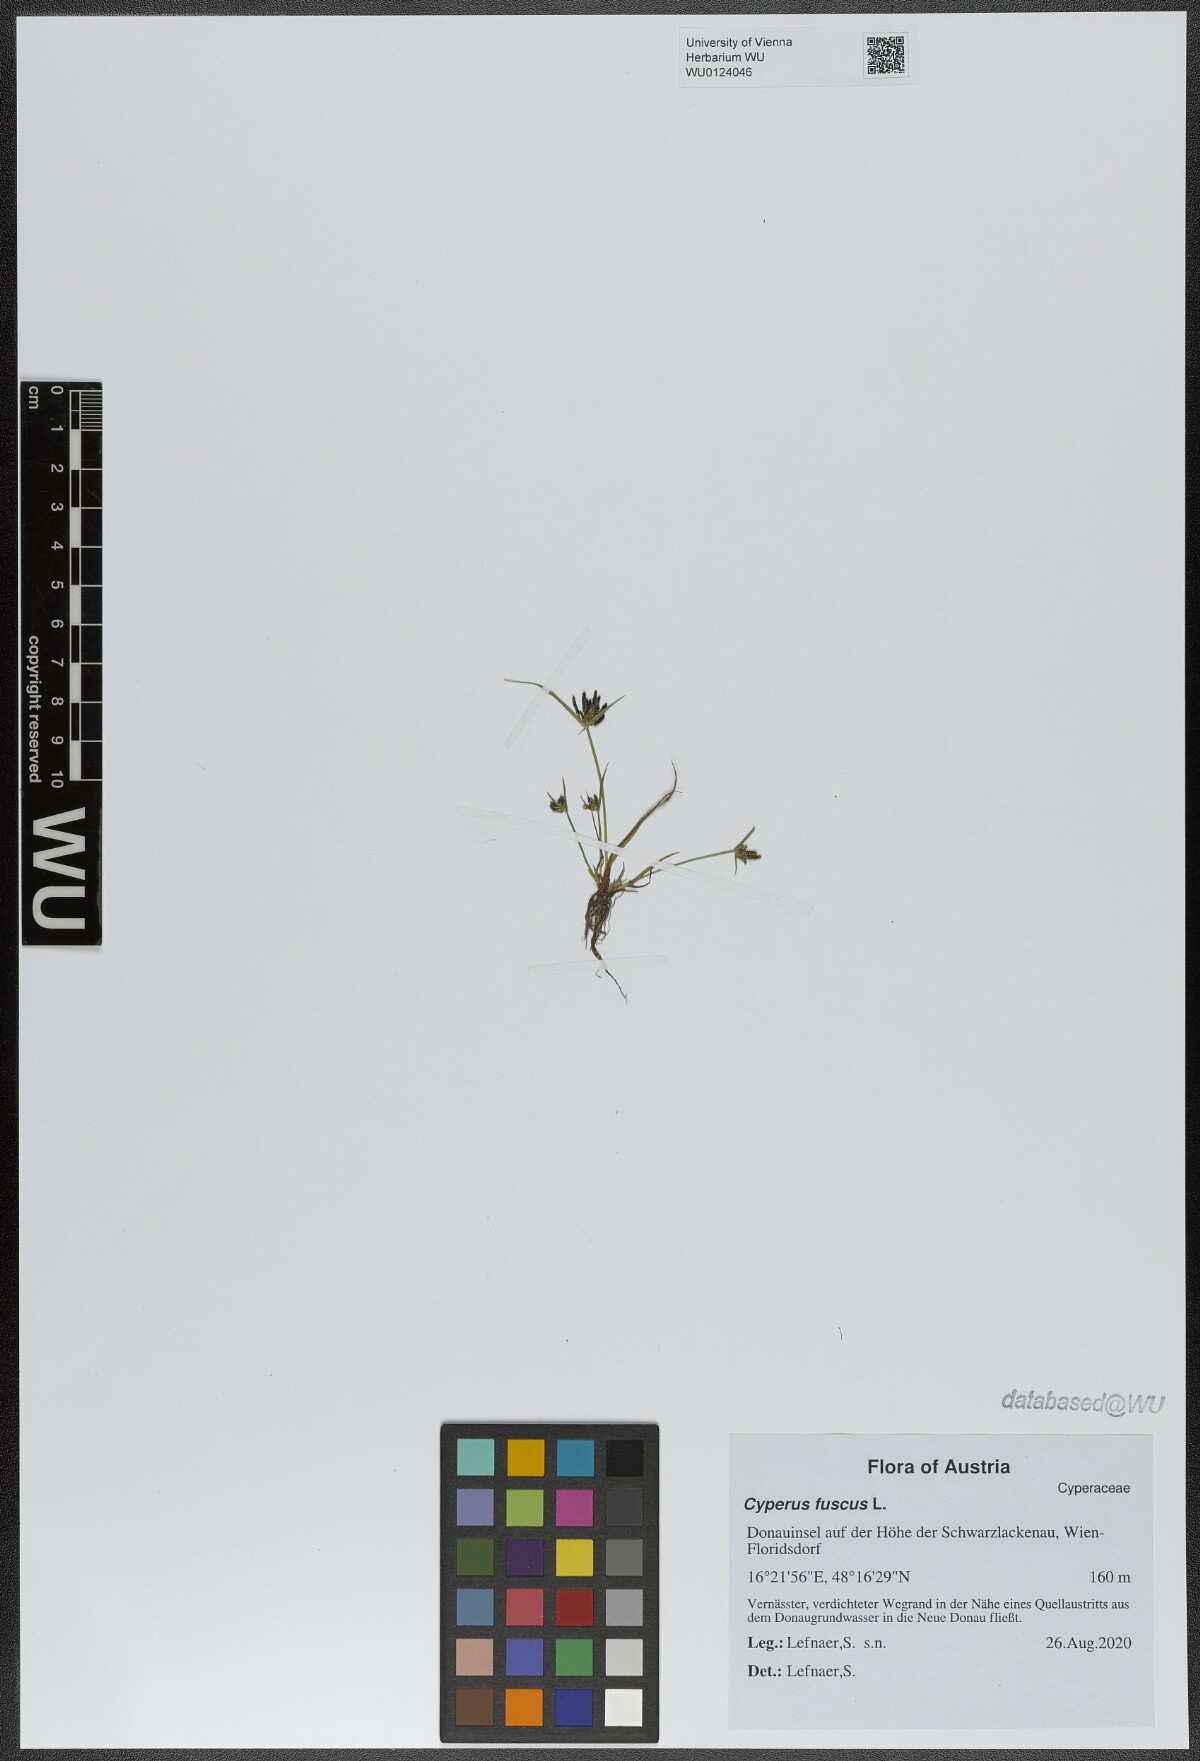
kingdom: Plantae
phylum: Tracheophyta
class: Liliopsida
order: Poales
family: Cyperaceae
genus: Cyperus
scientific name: Cyperus fuscus
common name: Brown galingale
